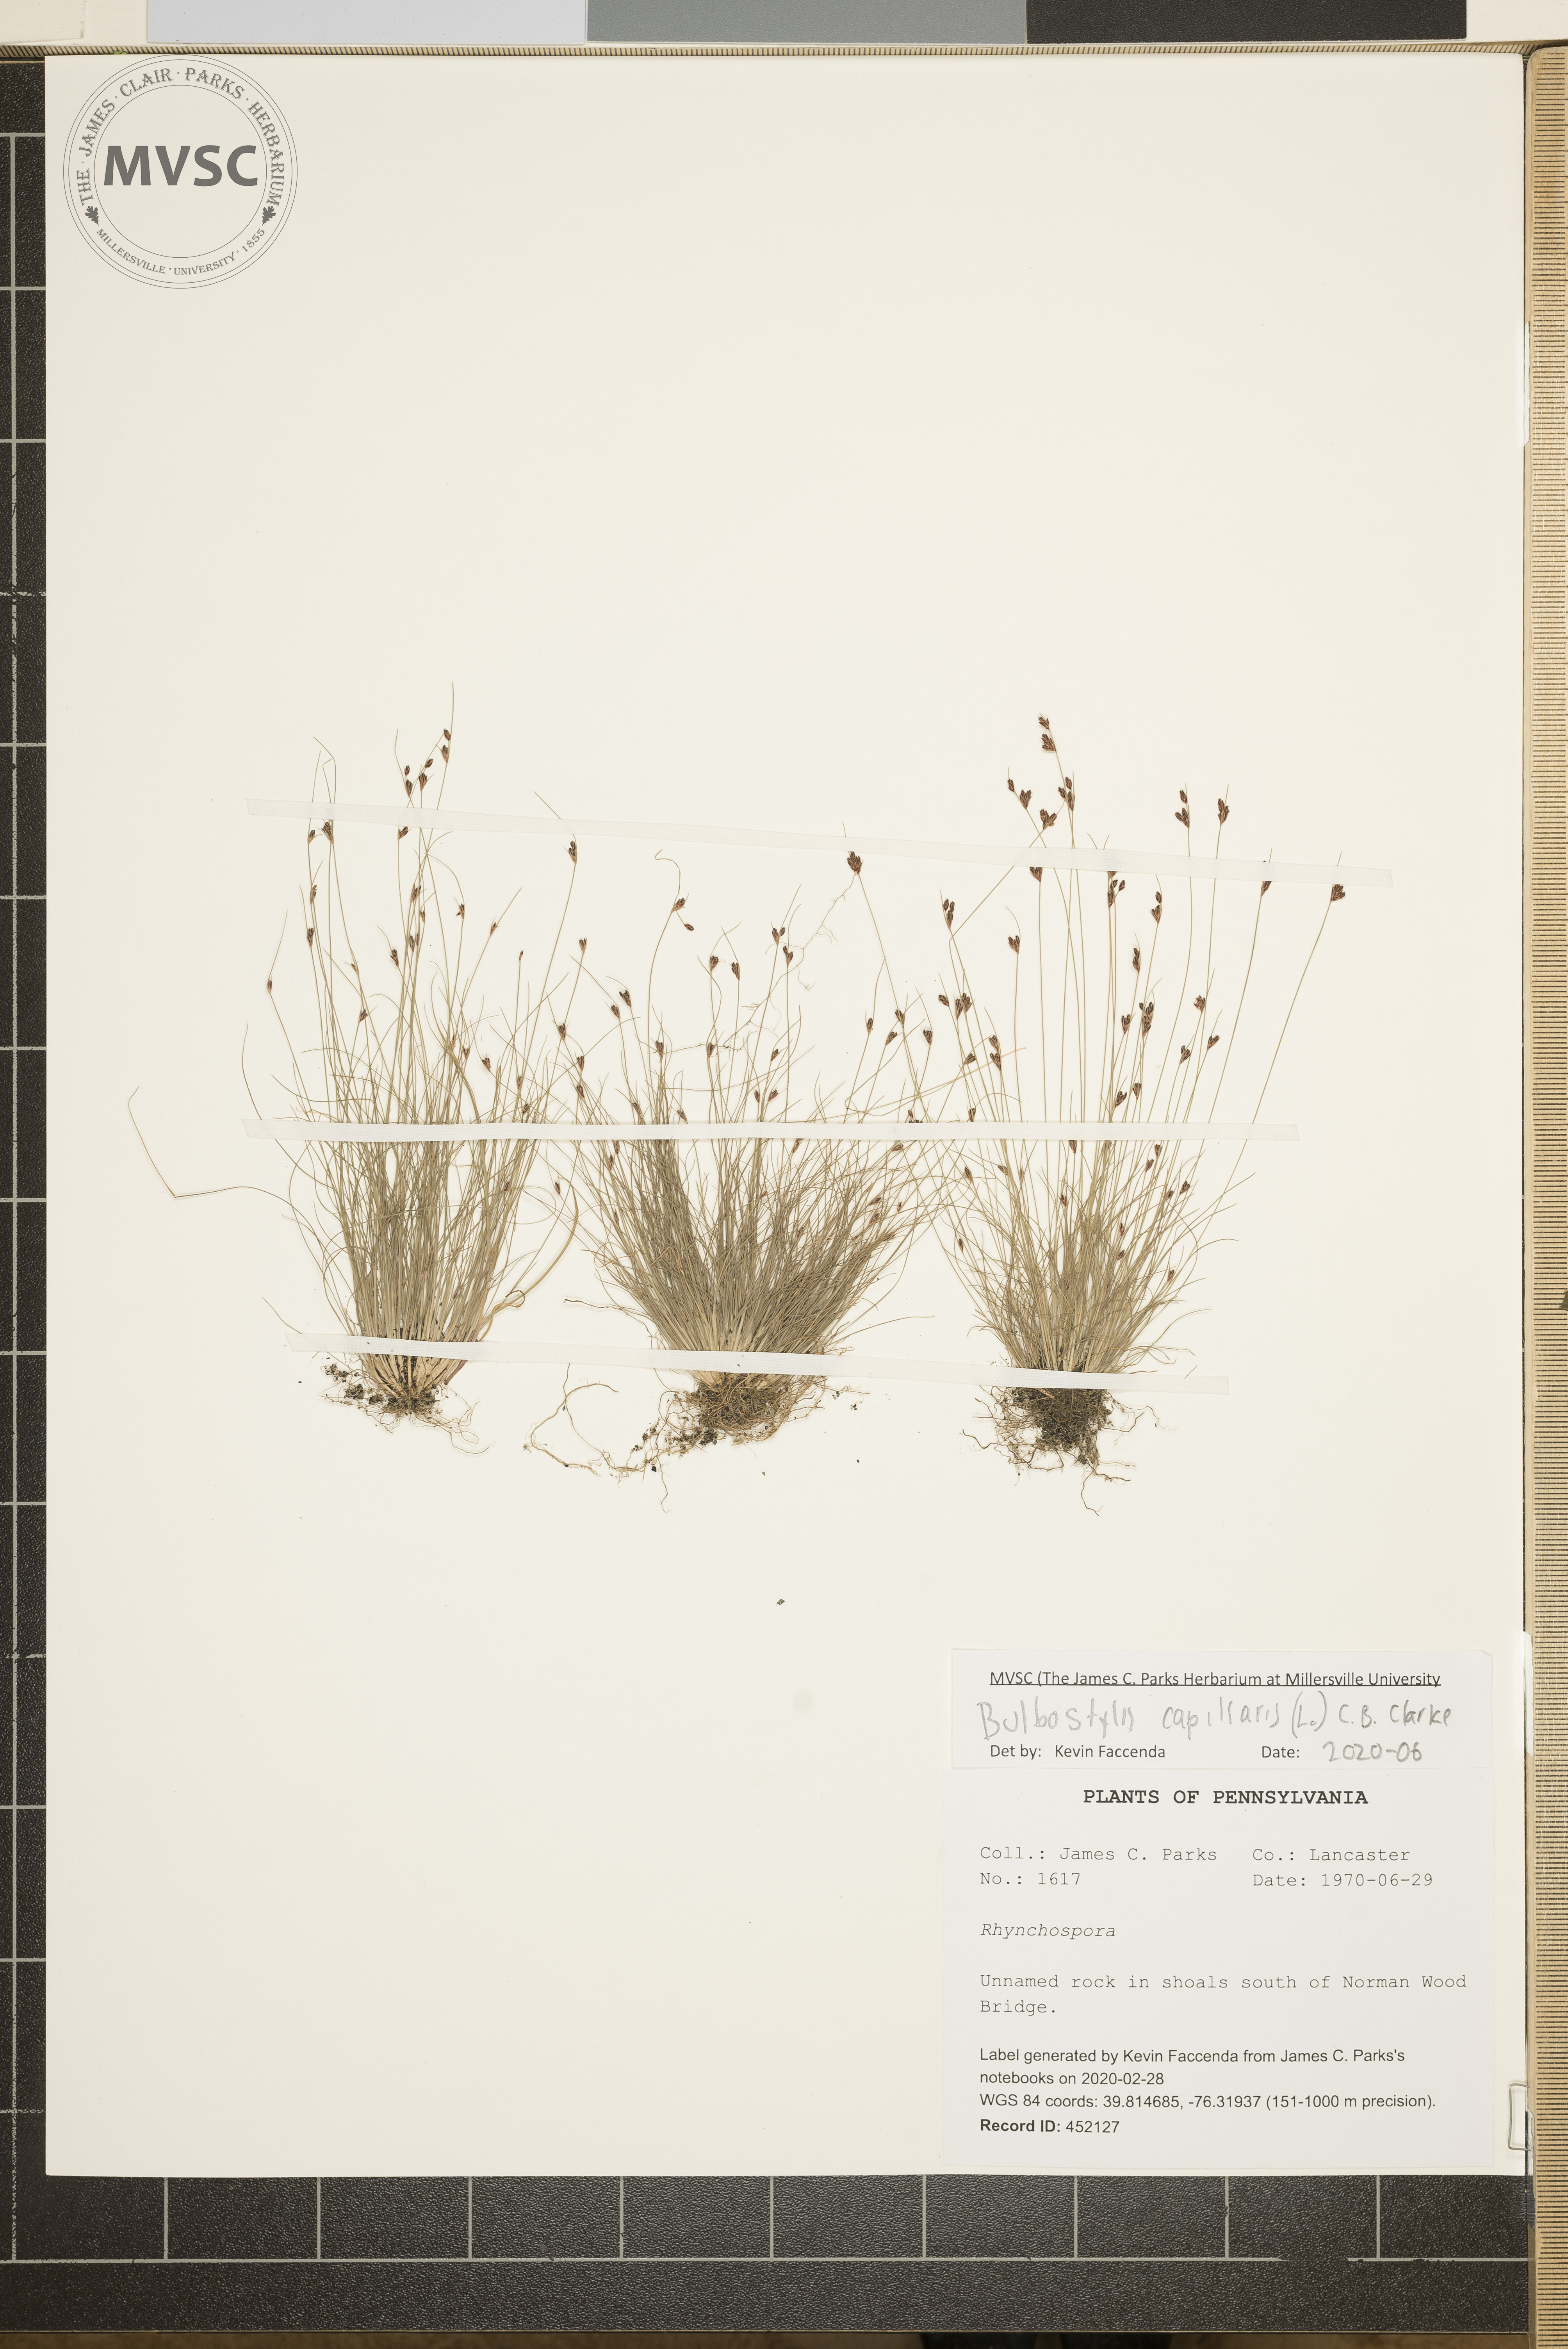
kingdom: Plantae
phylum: Tracheophyta
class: Liliopsida
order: Poales
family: Cyperaceae
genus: Bulbostylis
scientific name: Bulbostylis capillaris
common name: Densetuft hairsedge
